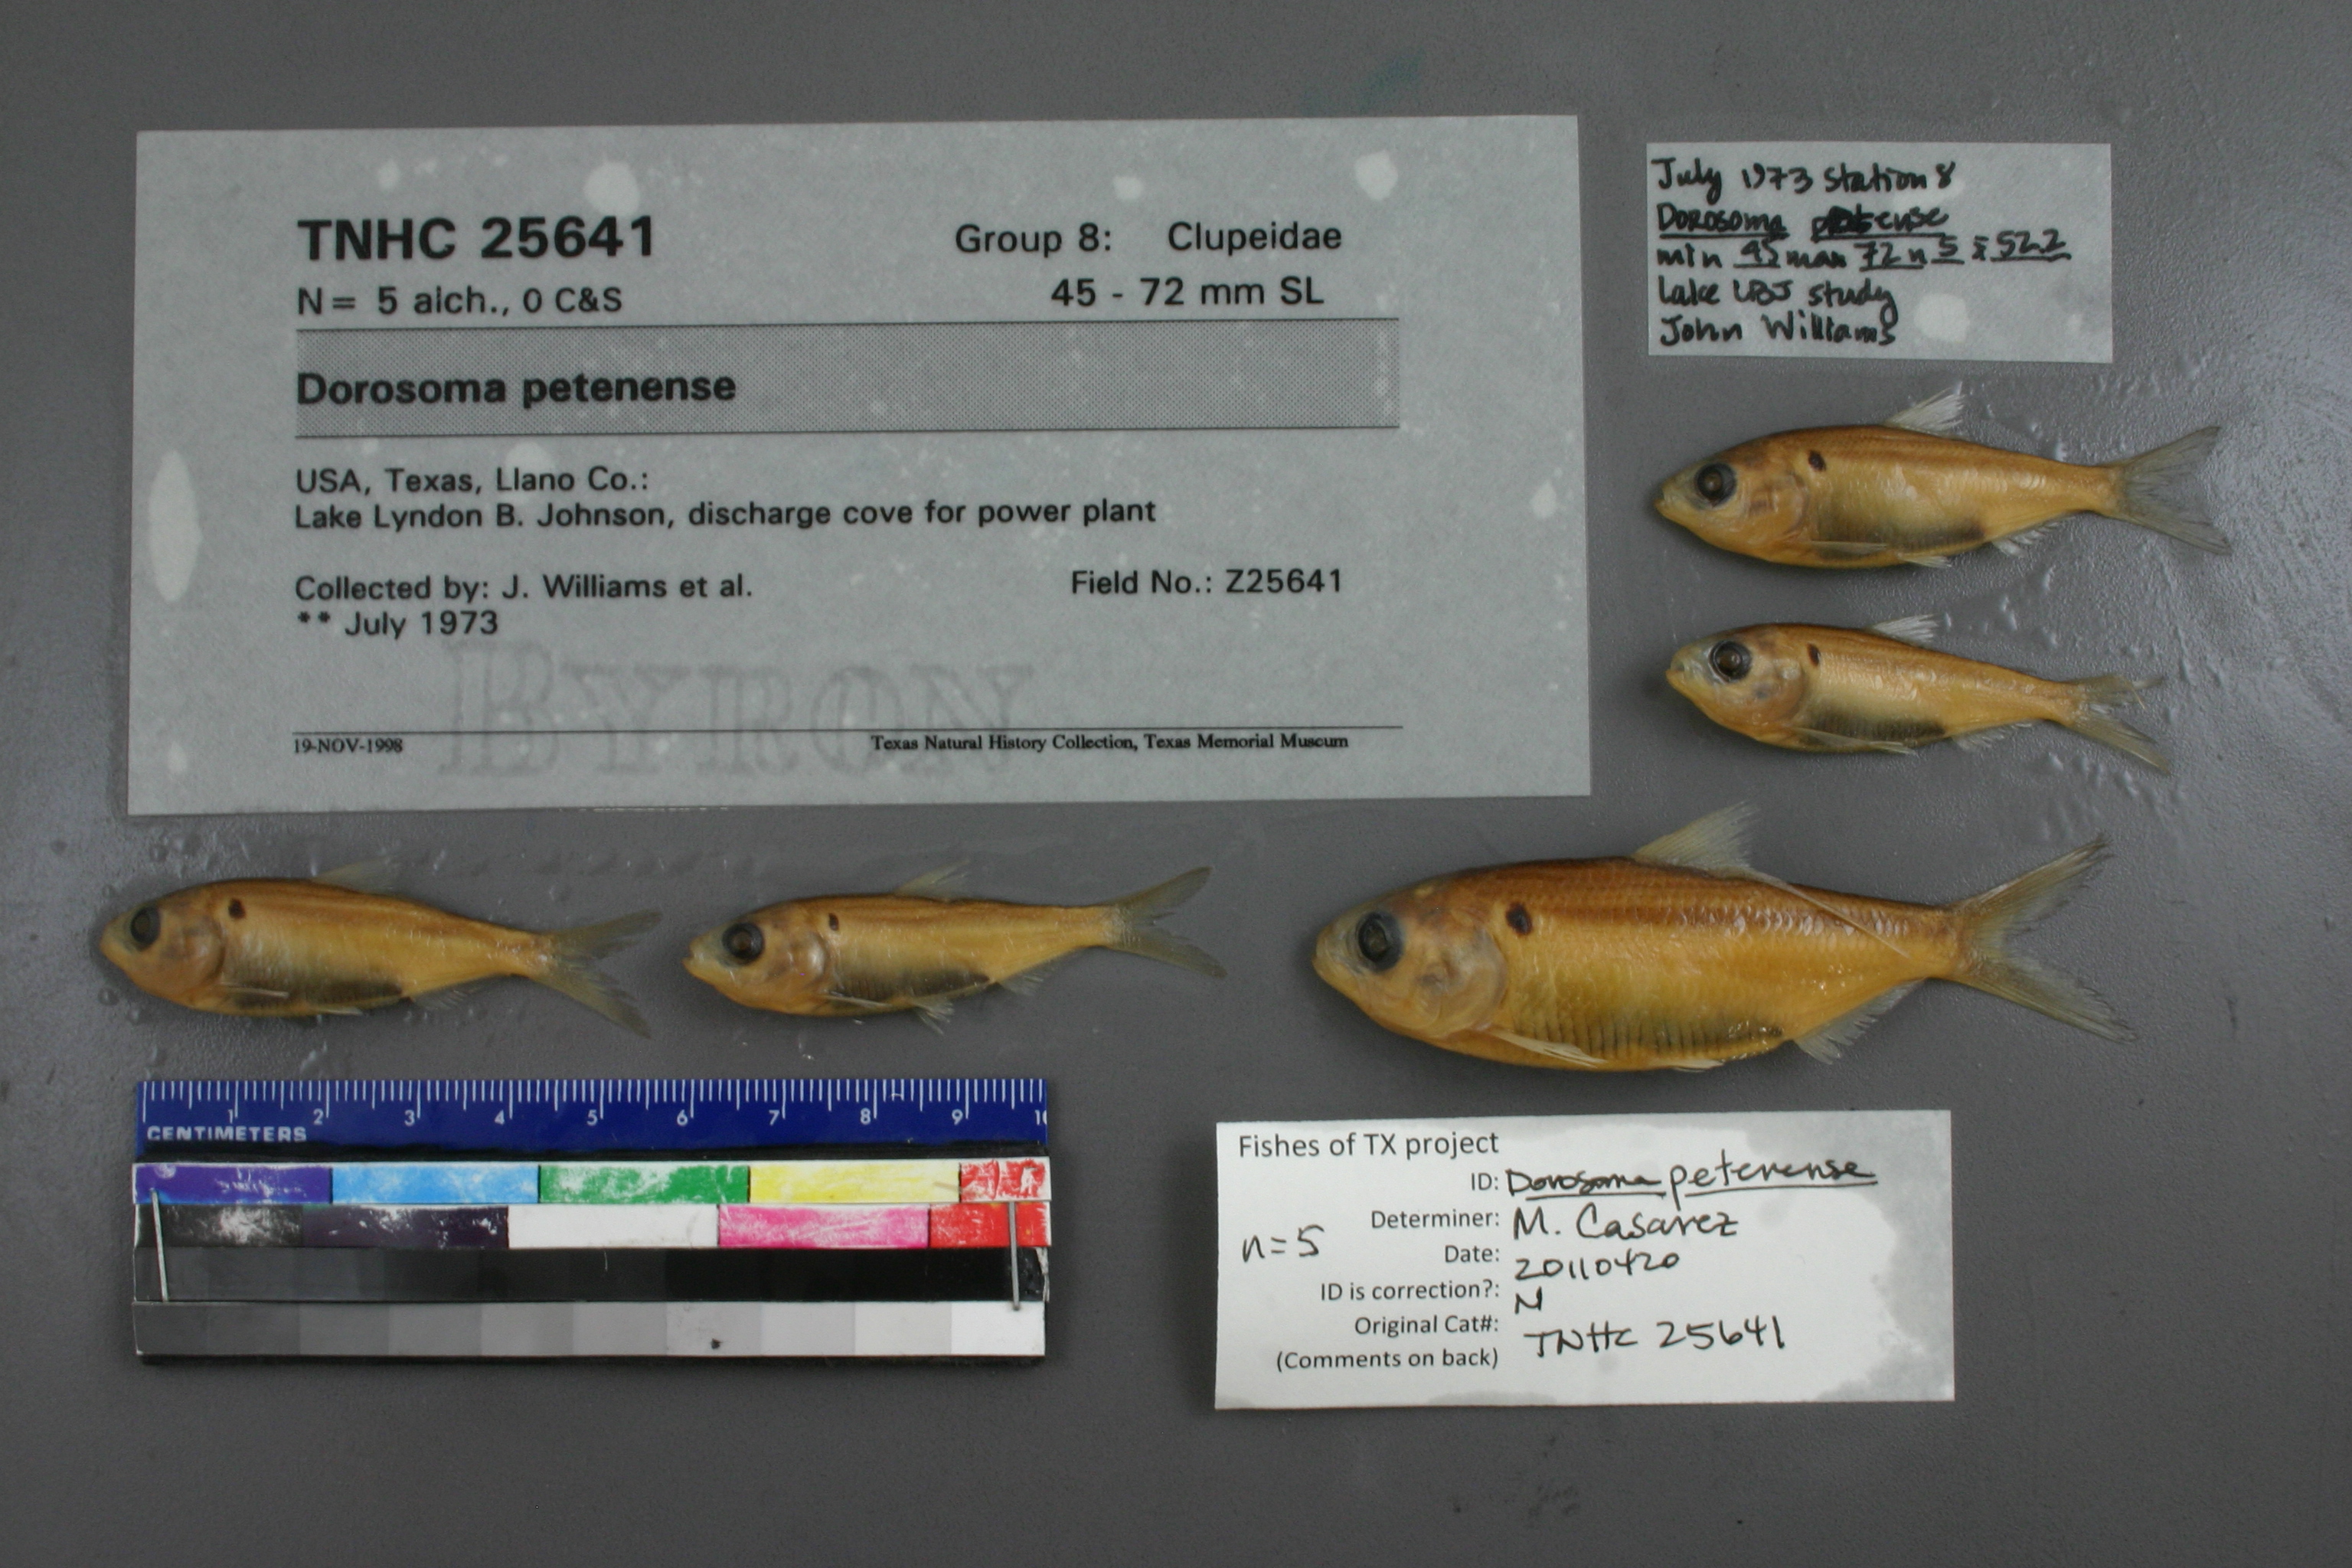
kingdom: Animalia
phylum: Chordata
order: Clupeiformes
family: Clupeidae
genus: Dorosoma
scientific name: Dorosoma petenense
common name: Threadfin shad
